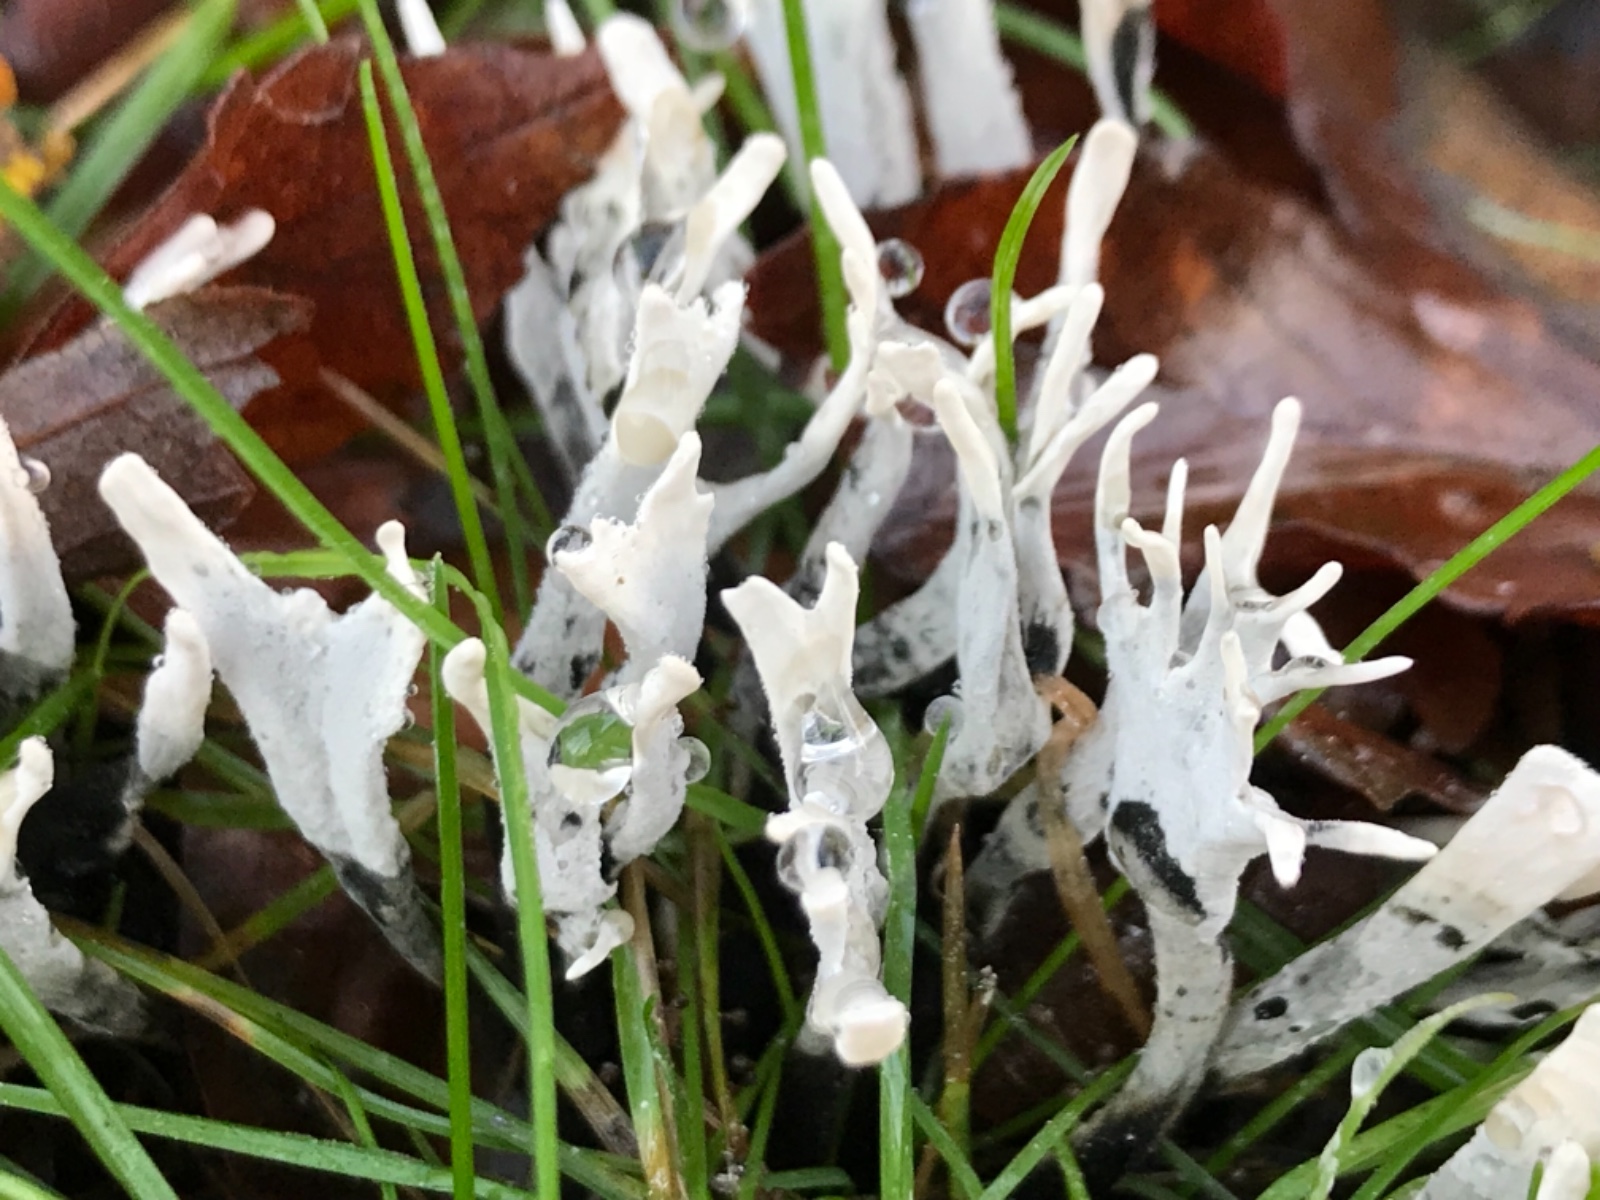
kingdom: Fungi
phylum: Ascomycota
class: Sordariomycetes
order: Xylariales
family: Xylariaceae
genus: Xylaria
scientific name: Xylaria hypoxylon
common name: grenet stødsvamp
